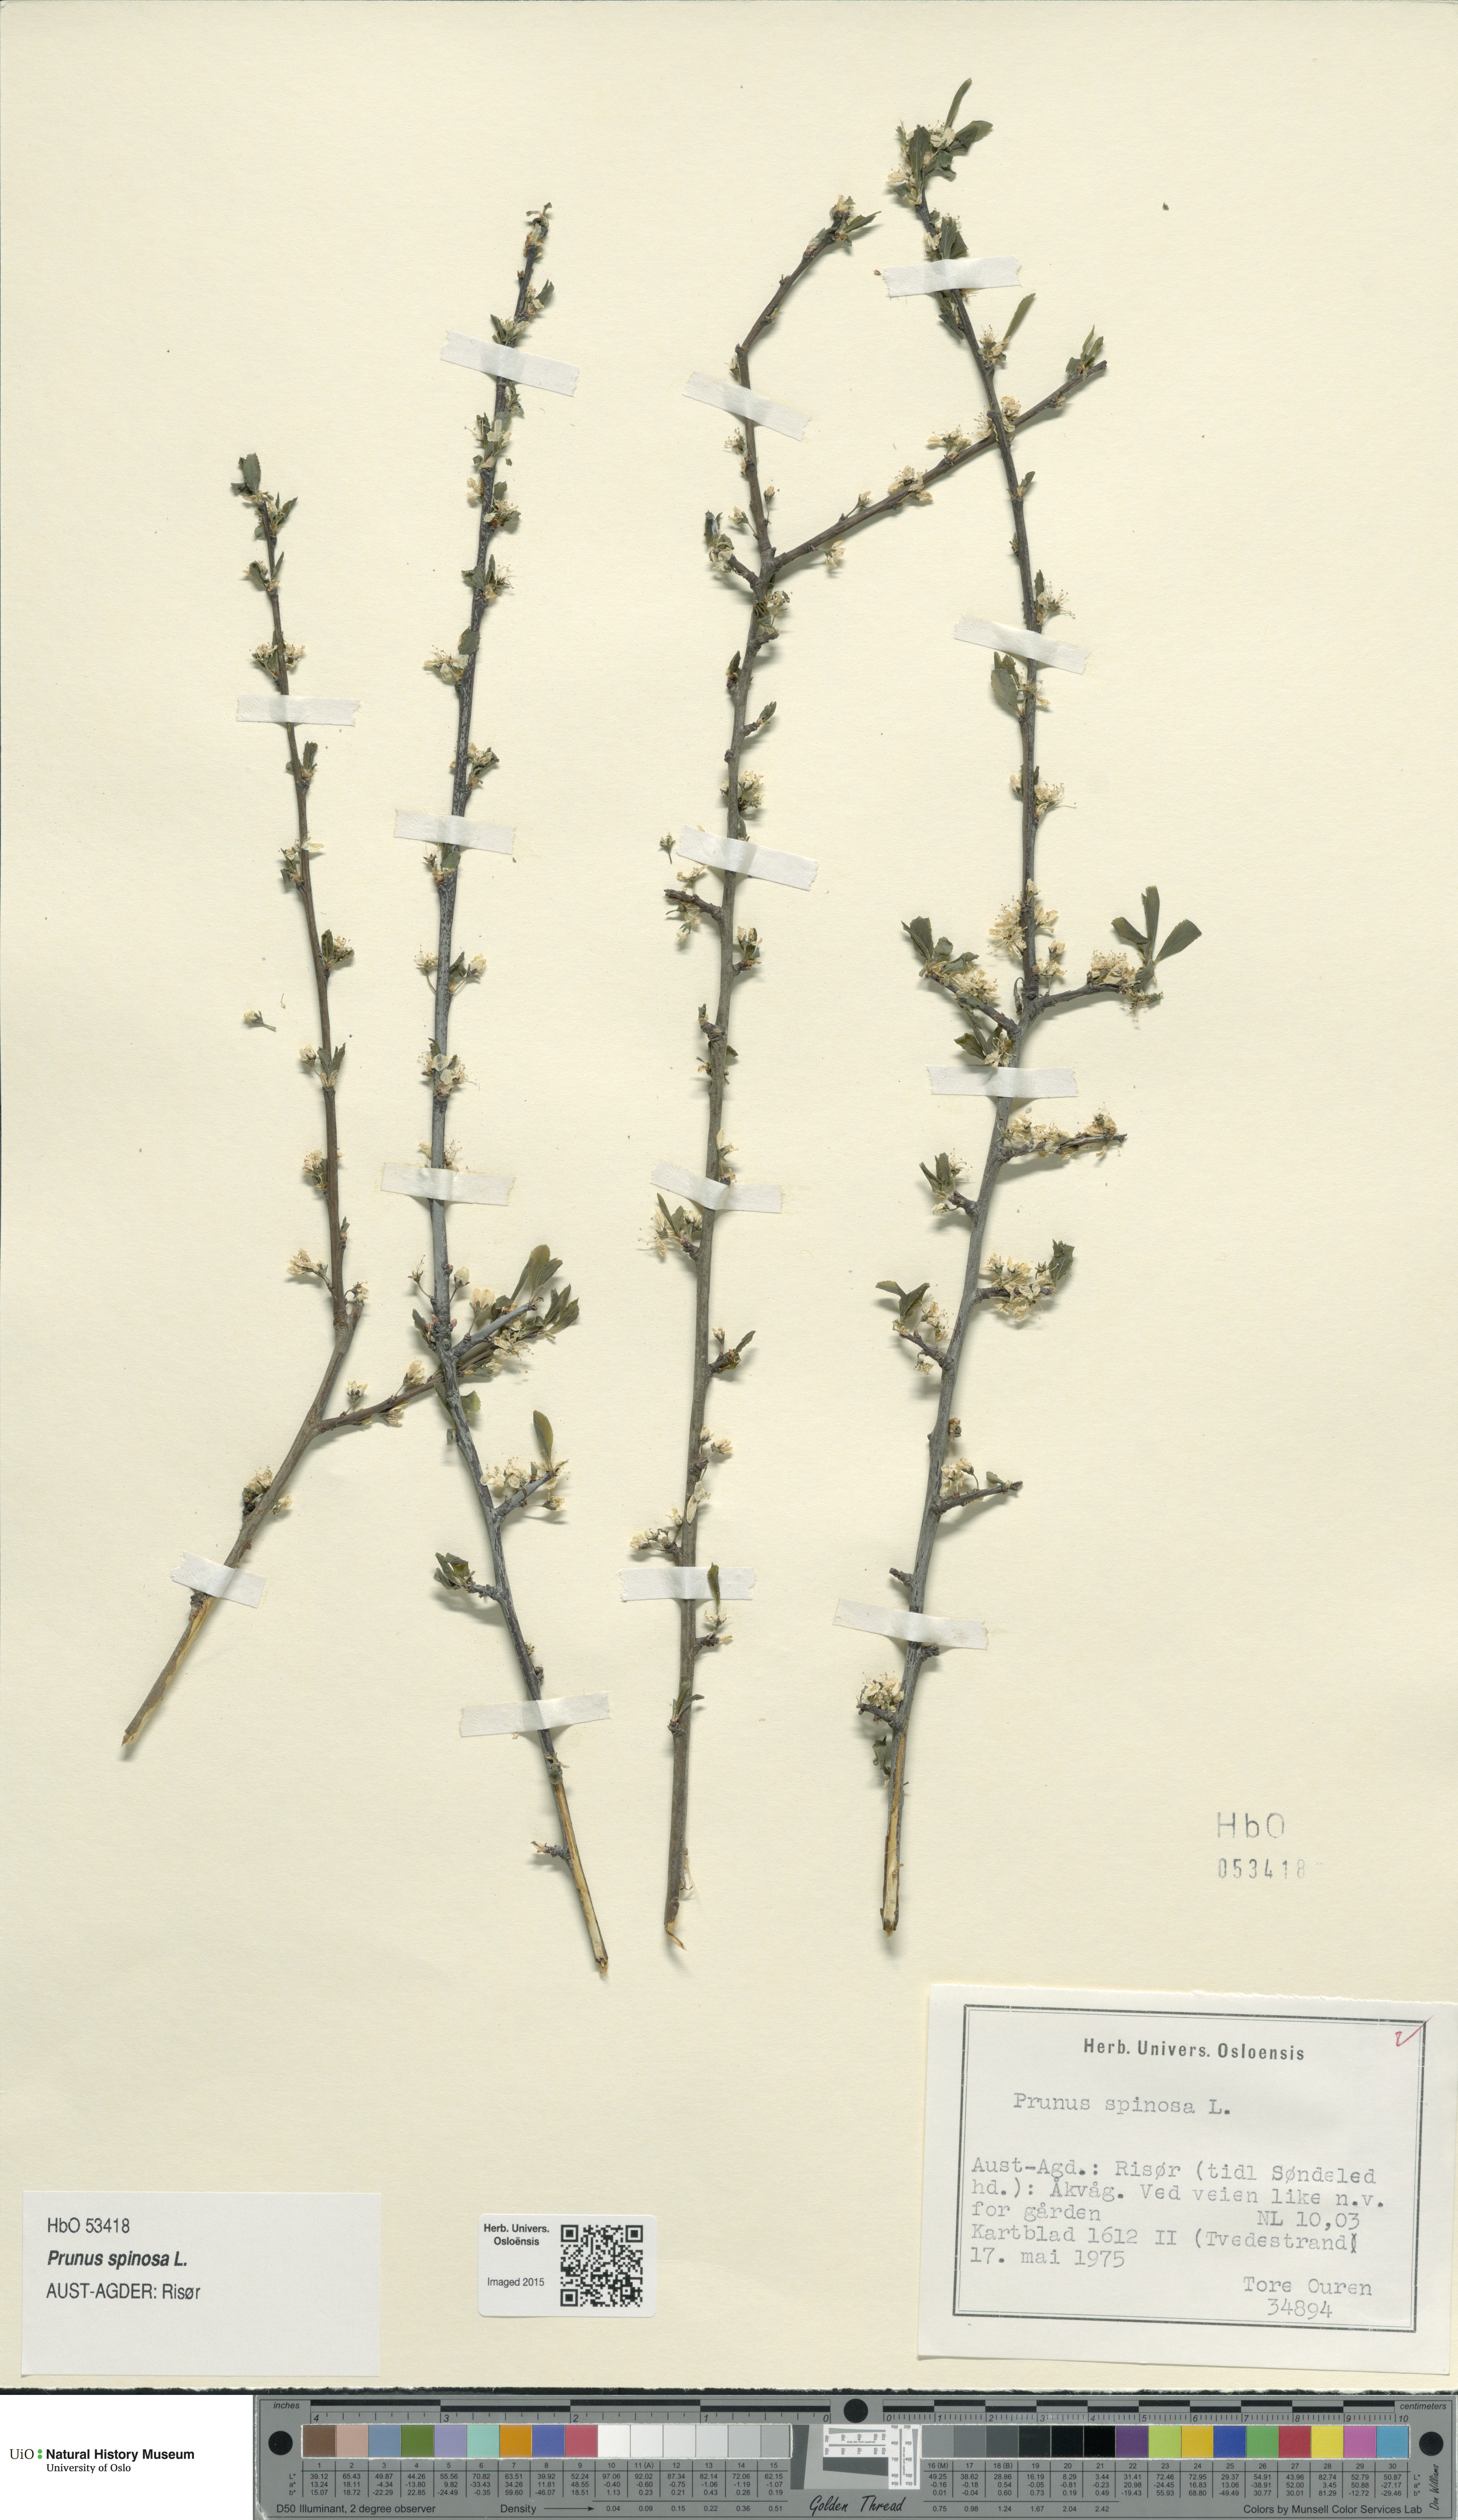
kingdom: Plantae
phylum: Tracheophyta
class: Magnoliopsida
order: Rosales
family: Rosaceae
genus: Prunus
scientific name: Prunus spinosa
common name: Blackthorn
